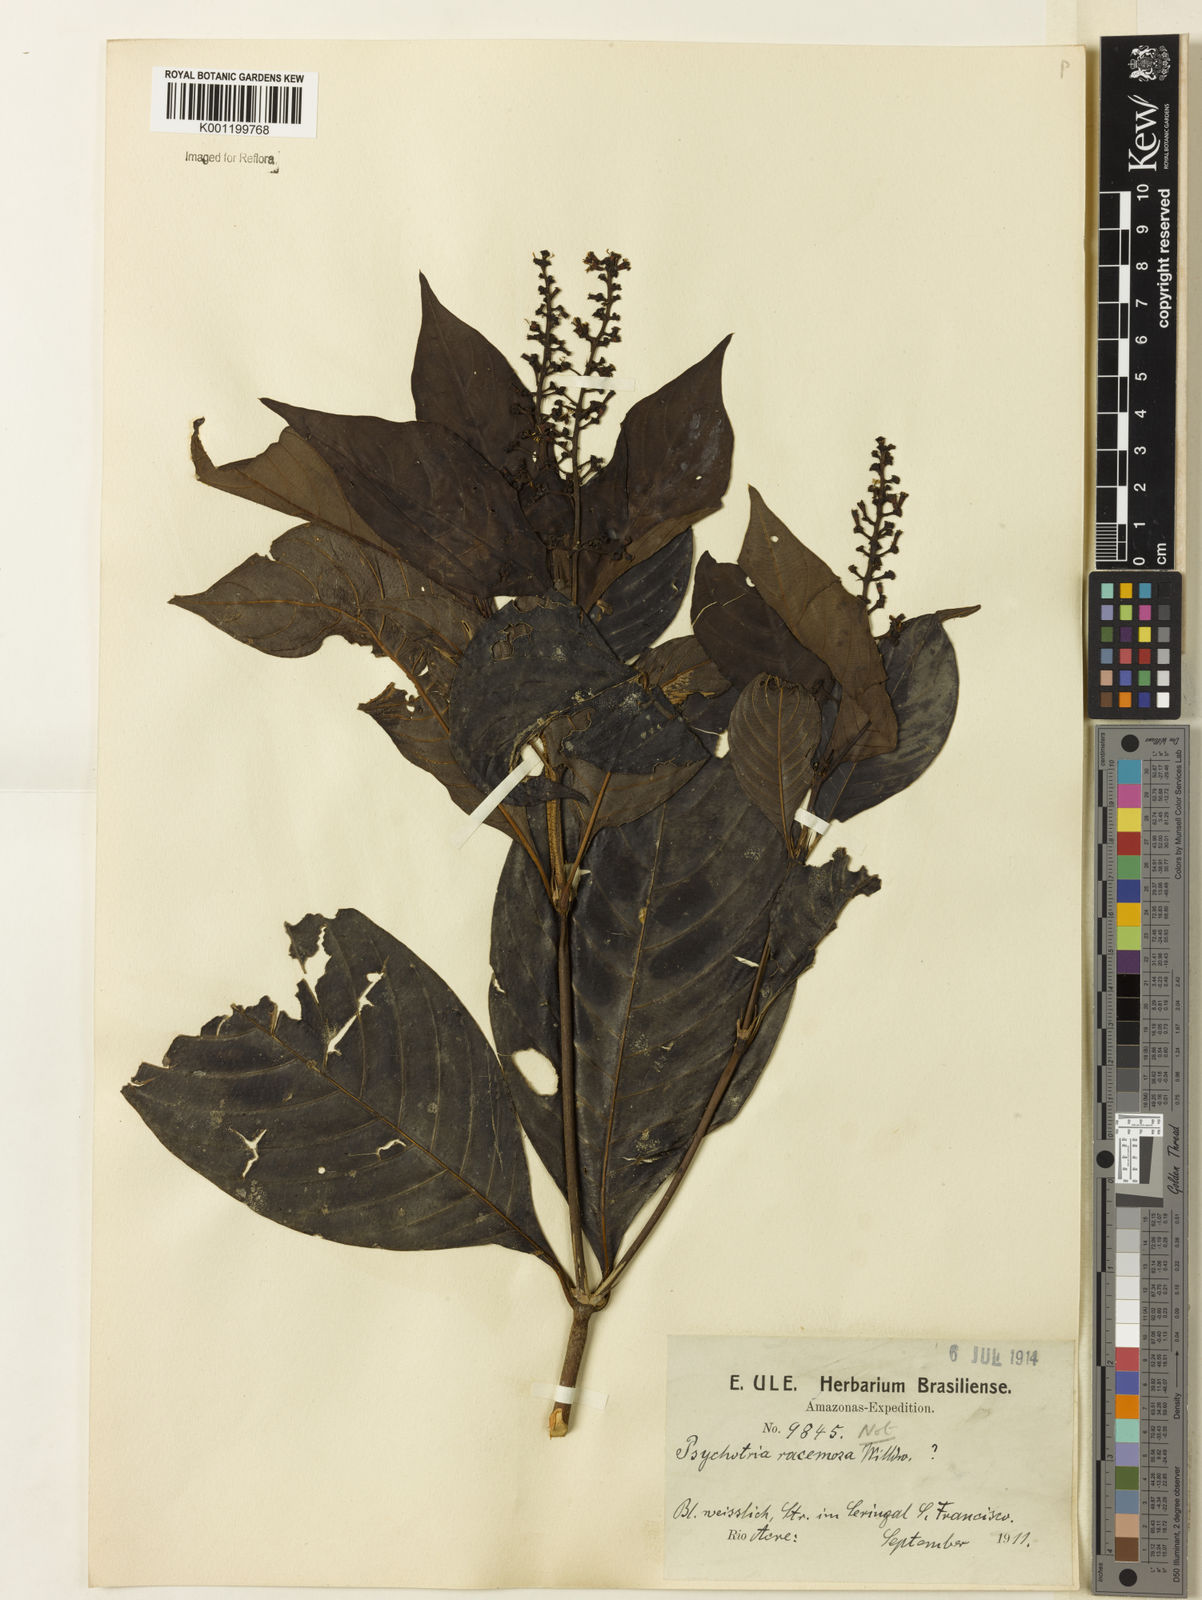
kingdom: Plantae
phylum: Tracheophyta
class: Magnoliopsida
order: Gentianales
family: Rubiaceae
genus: Palicourea
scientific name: Palicourea stenostachya
